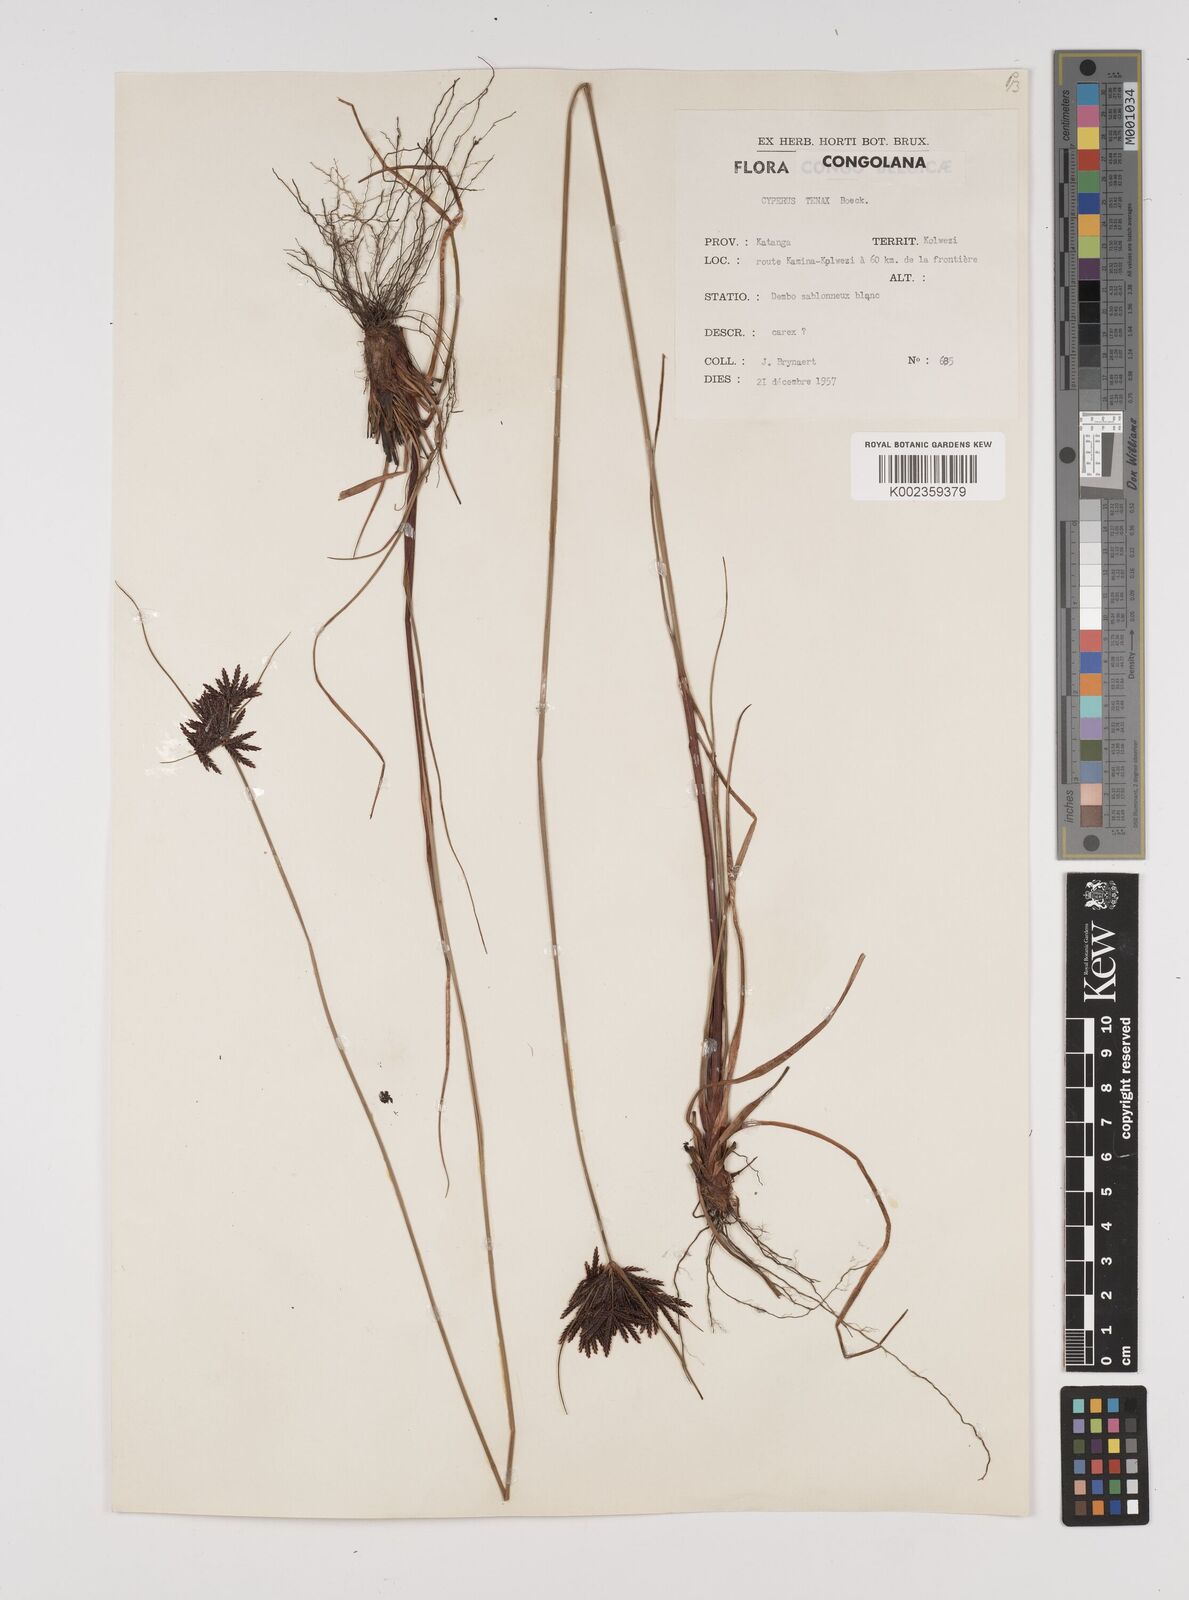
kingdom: Plantae
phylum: Tracheophyta
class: Liliopsida
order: Poales
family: Cyperaceae
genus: Cyperus
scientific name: Cyperus tenax
